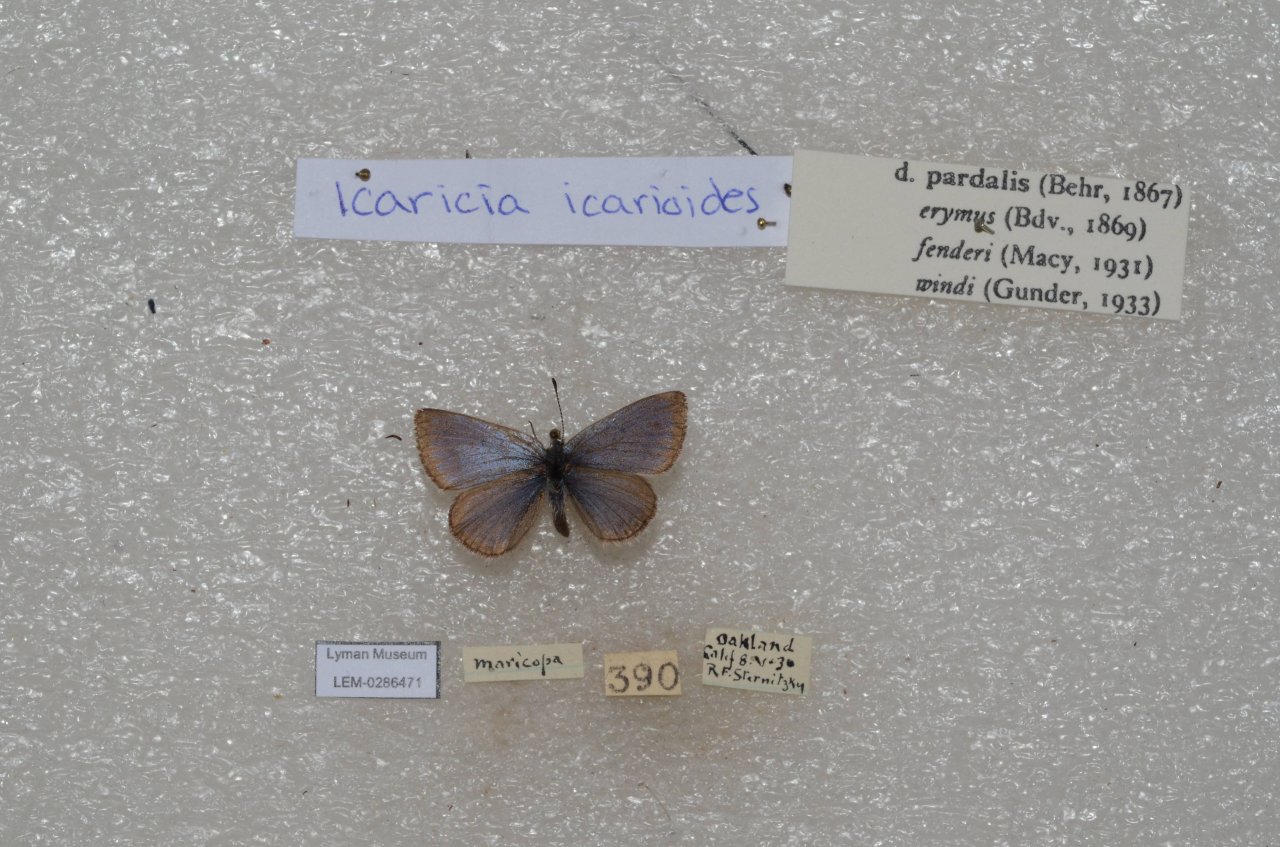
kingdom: Animalia
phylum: Arthropoda
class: Insecta
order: Lepidoptera
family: Lycaenidae
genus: Icaricia
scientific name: Icaricia icarioides
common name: Boisduval's Blue
